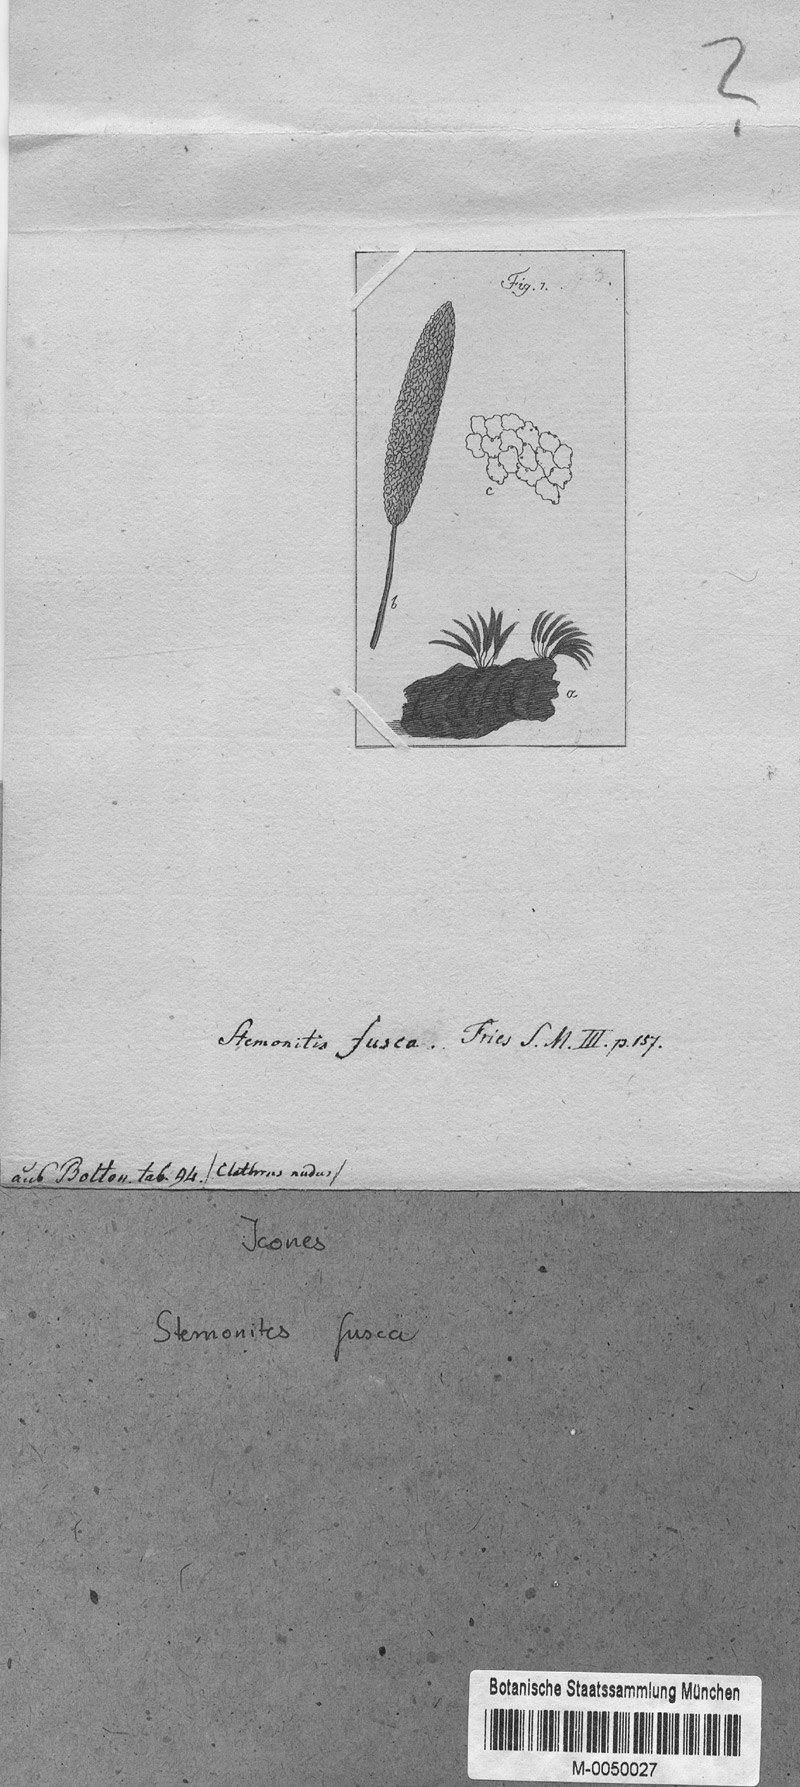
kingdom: Protozoa
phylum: Mycetozoa
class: Myxomycetes
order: Stemonitidales
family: Stemonitidaceae
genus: Stemonitis
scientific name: Stemonitis fusca
